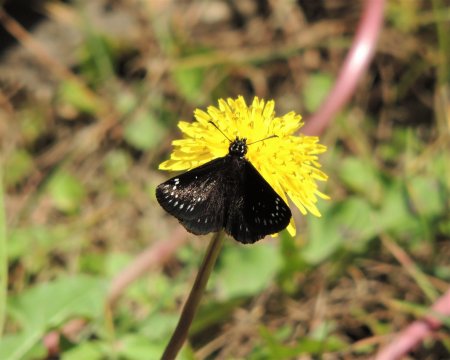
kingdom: Animalia
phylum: Arthropoda
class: Insecta
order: Lepidoptera
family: Hesperiidae
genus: Pholisora
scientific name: Pholisora catullus
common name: Common Sootywing
